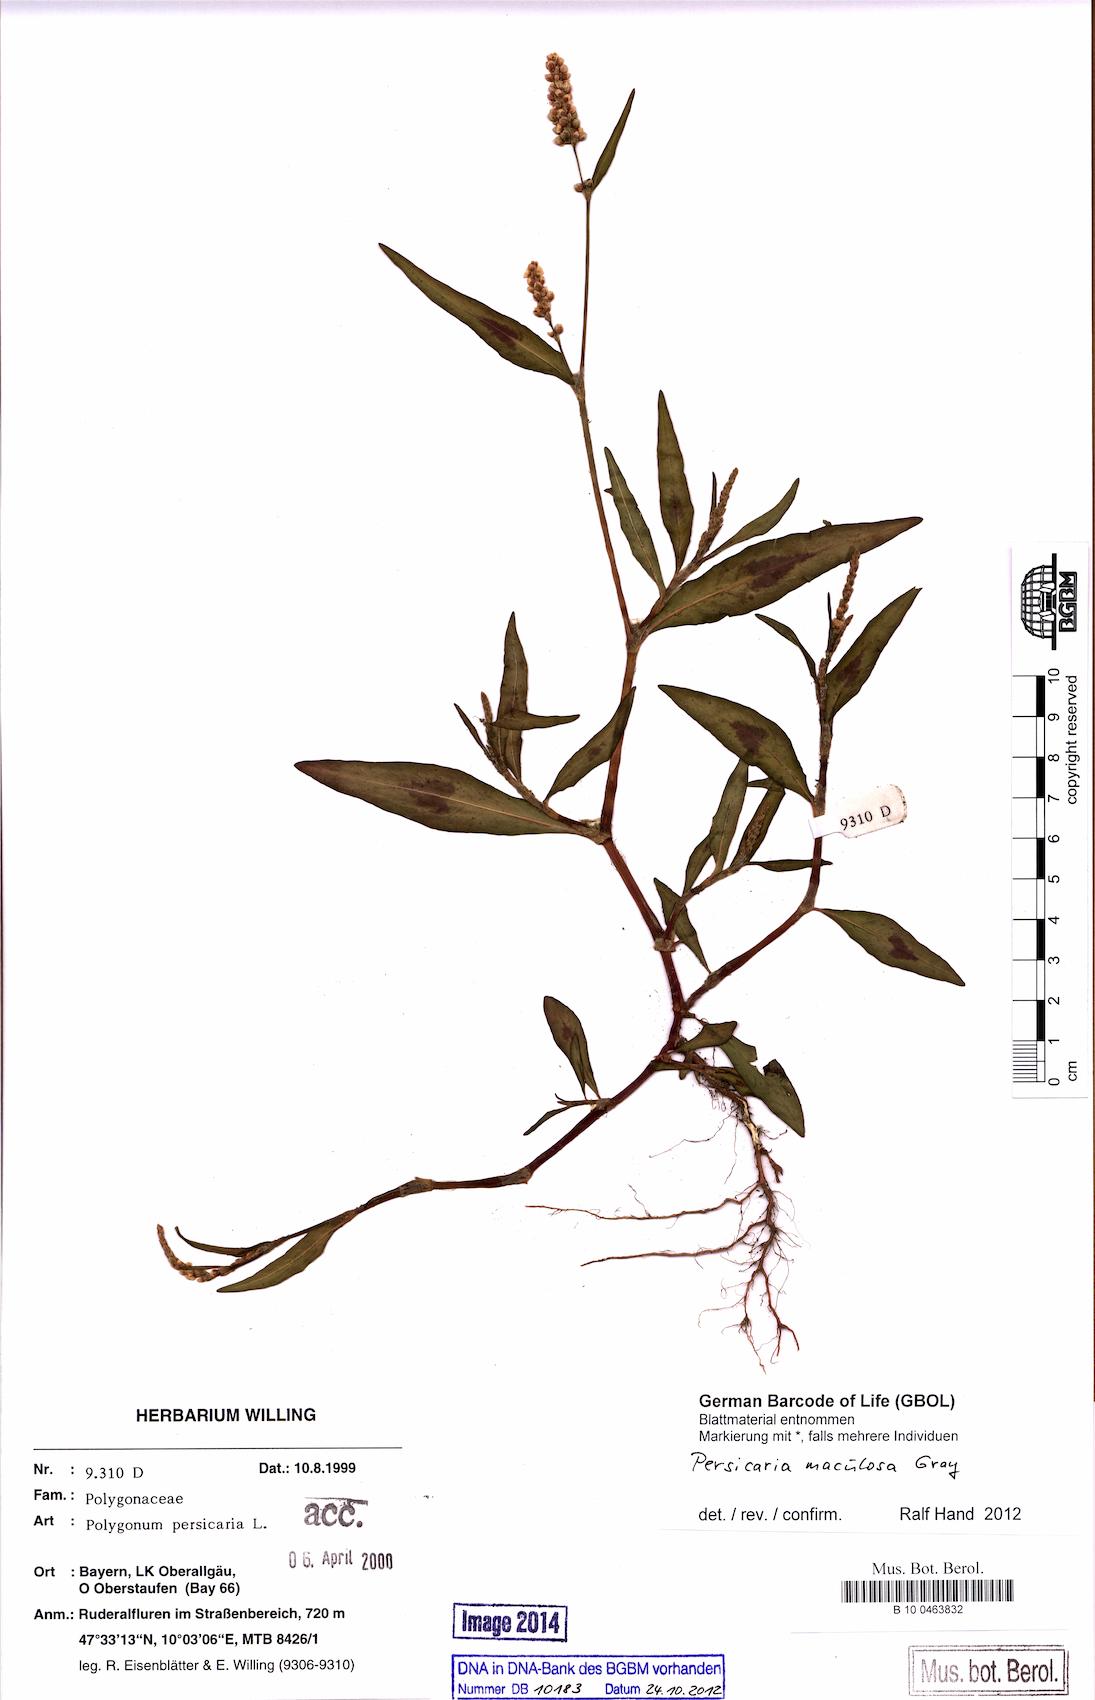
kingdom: Plantae
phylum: Tracheophyta
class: Magnoliopsida
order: Caryophyllales
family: Polygonaceae
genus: Persicaria
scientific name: Persicaria maculosa
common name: Redshank
